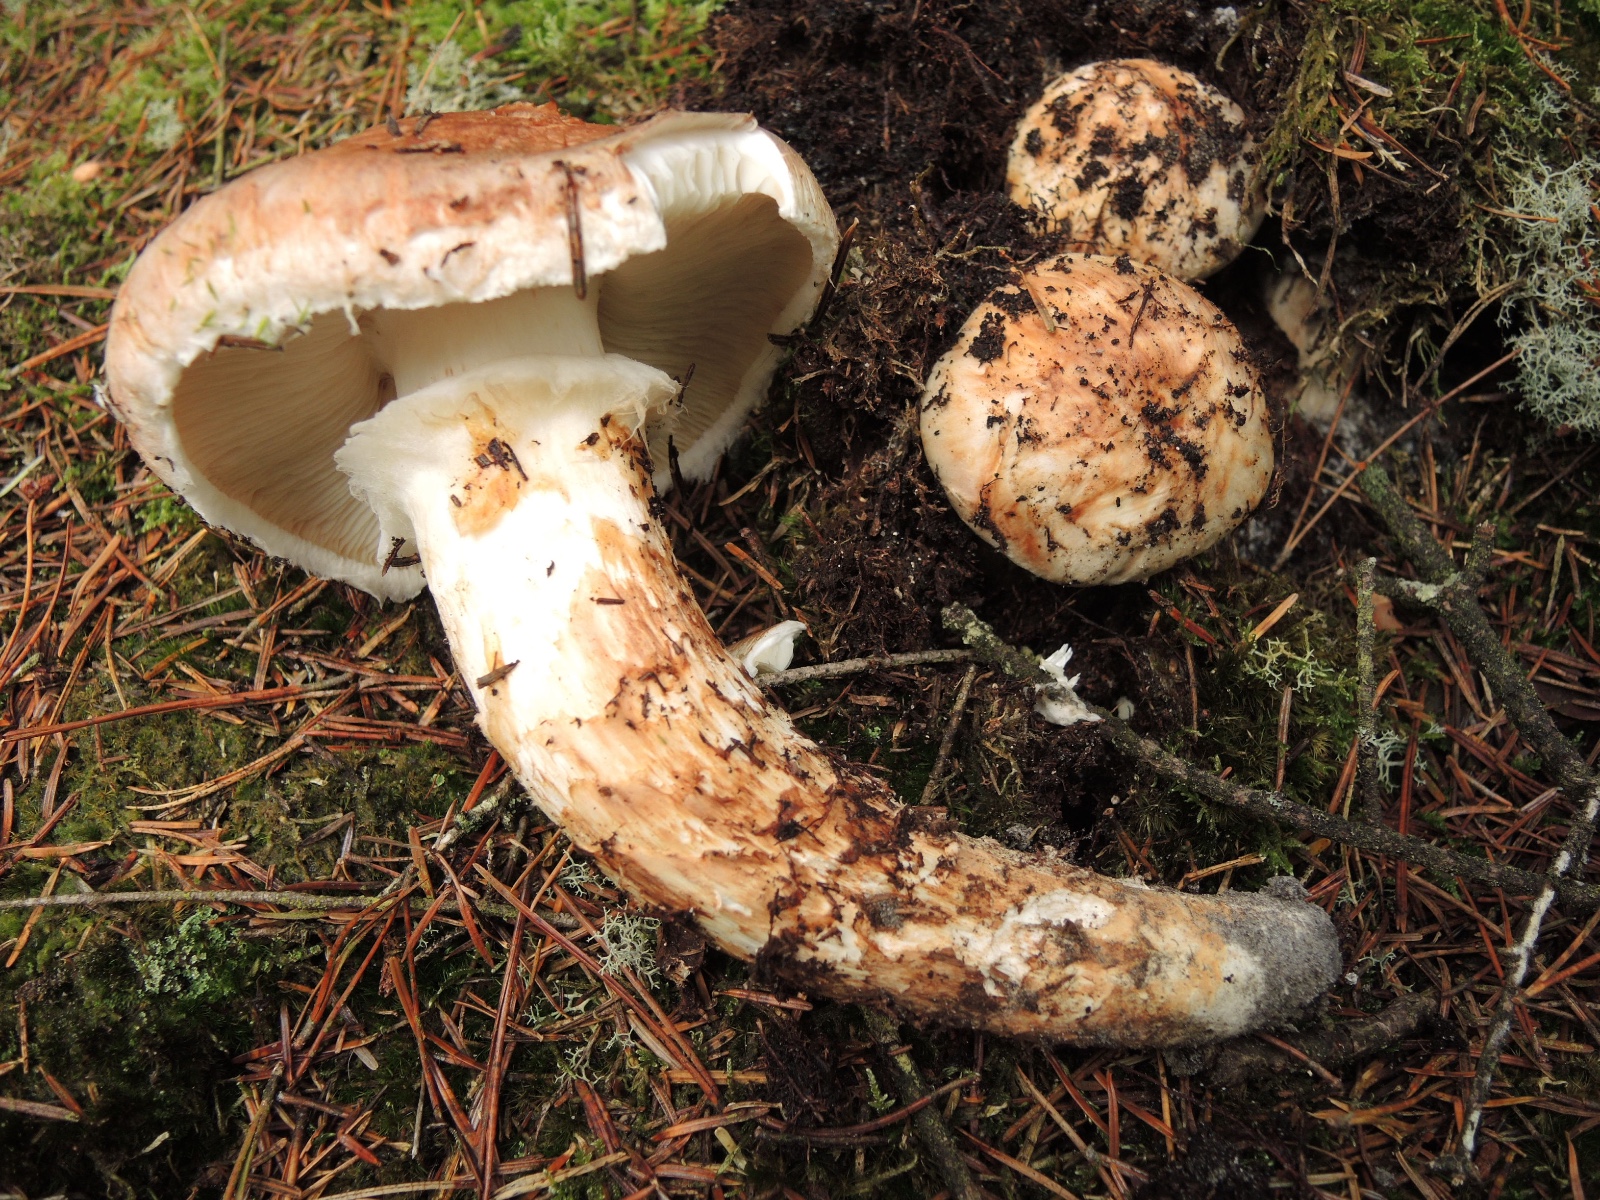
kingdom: Fungi
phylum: Basidiomycota
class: Agaricomycetes
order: Agaricales
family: Tricholomataceae
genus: Tricholoma
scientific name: Tricholoma matsutake
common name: duft-ridderhat
